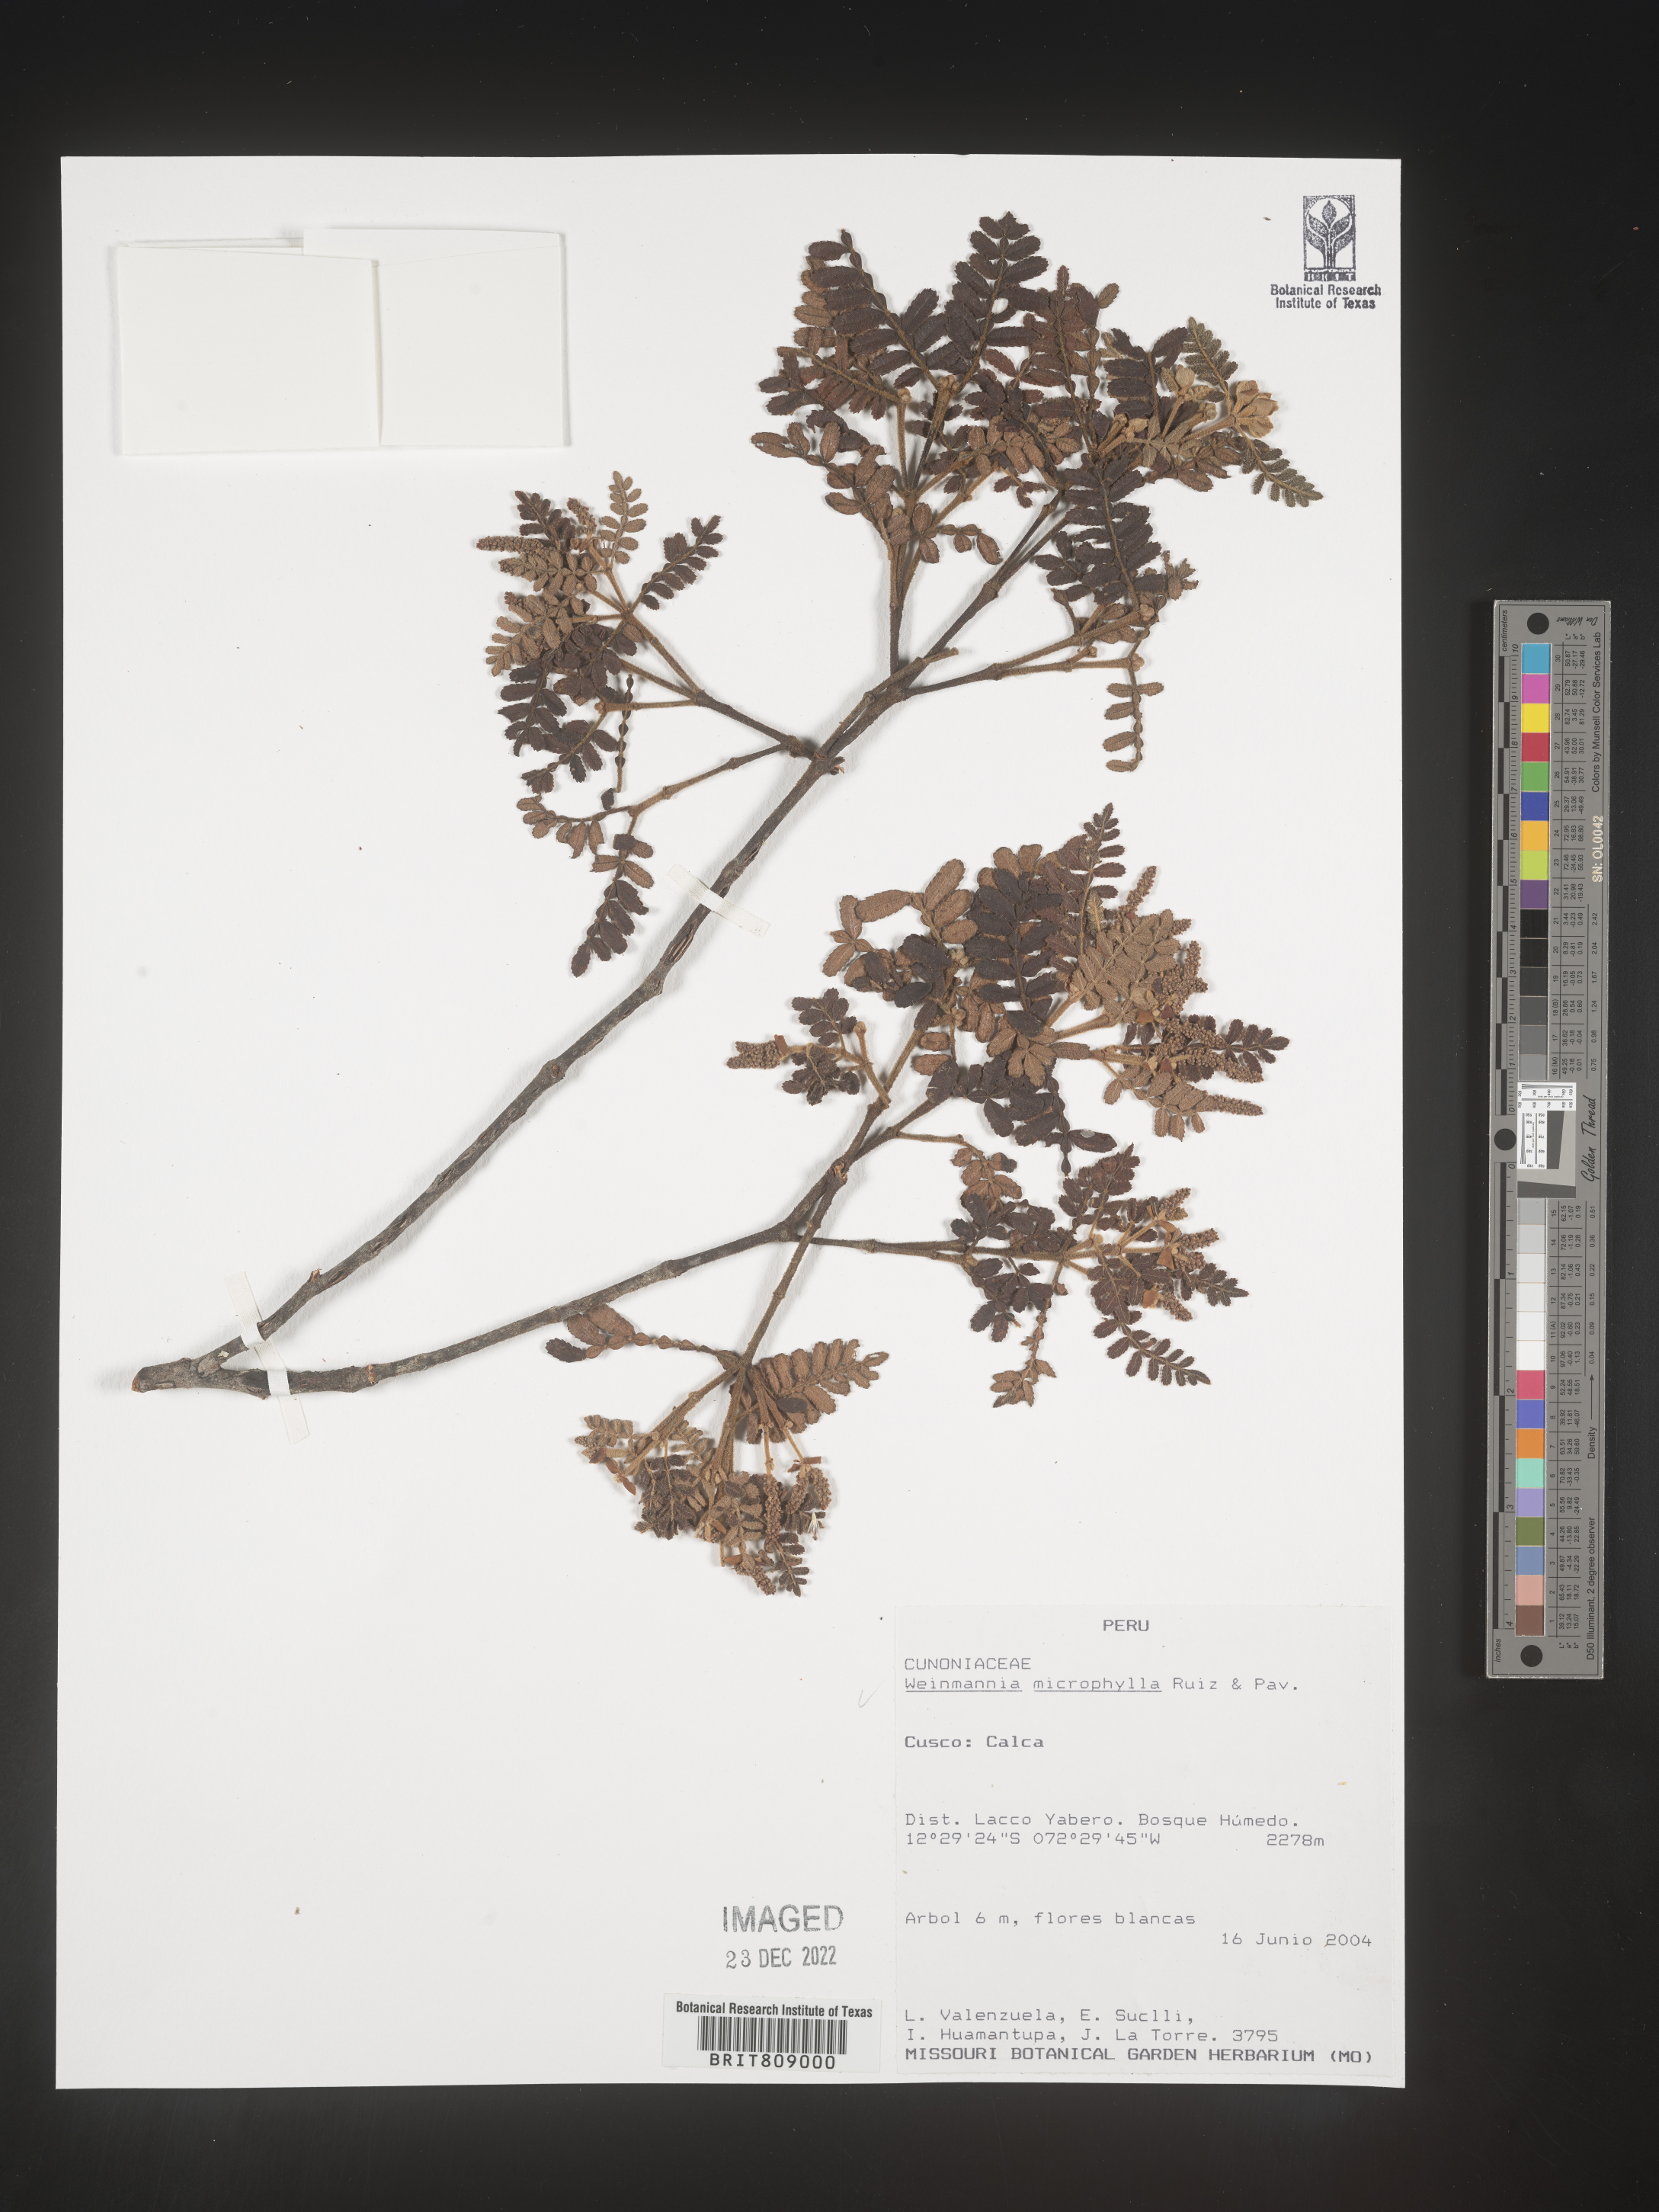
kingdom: Plantae
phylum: Tracheophyta
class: Magnoliopsida
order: Oxalidales
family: Cunoniaceae
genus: Weinmannia
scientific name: Weinmannia
